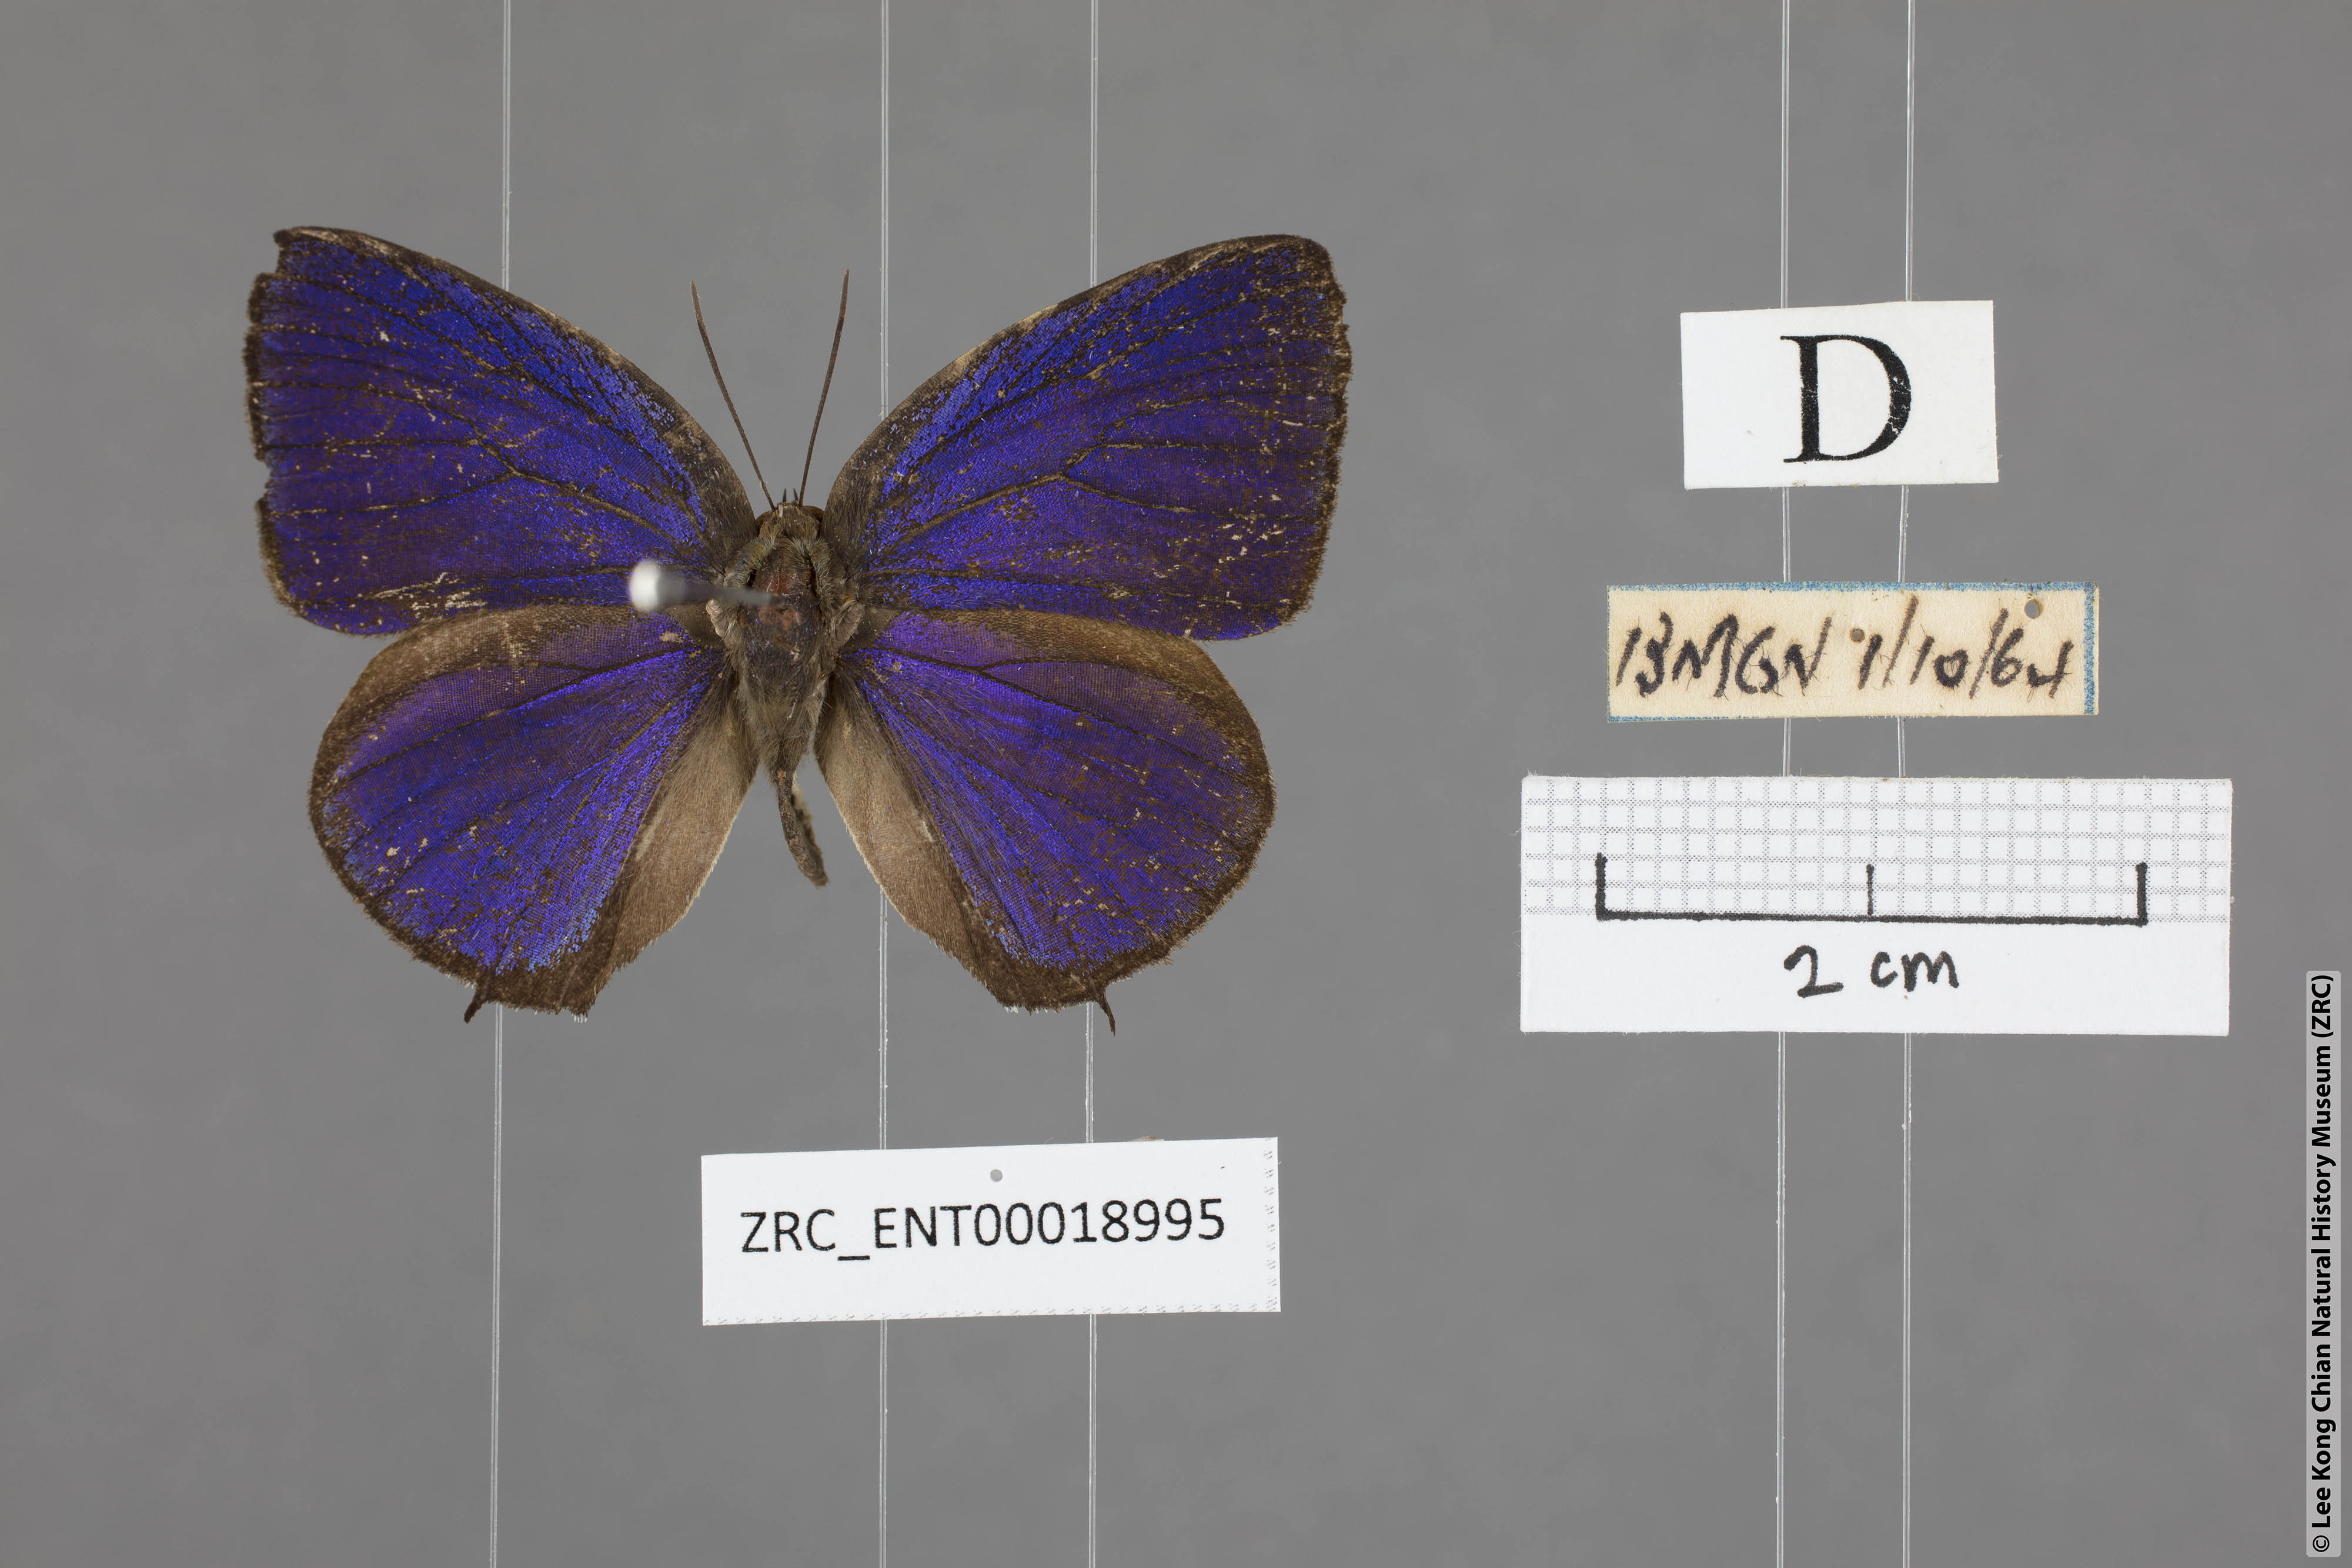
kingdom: Animalia
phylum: Arthropoda
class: Insecta
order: Lepidoptera
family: Lycaenidae
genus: Arhopala
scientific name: Arhopala achelous
